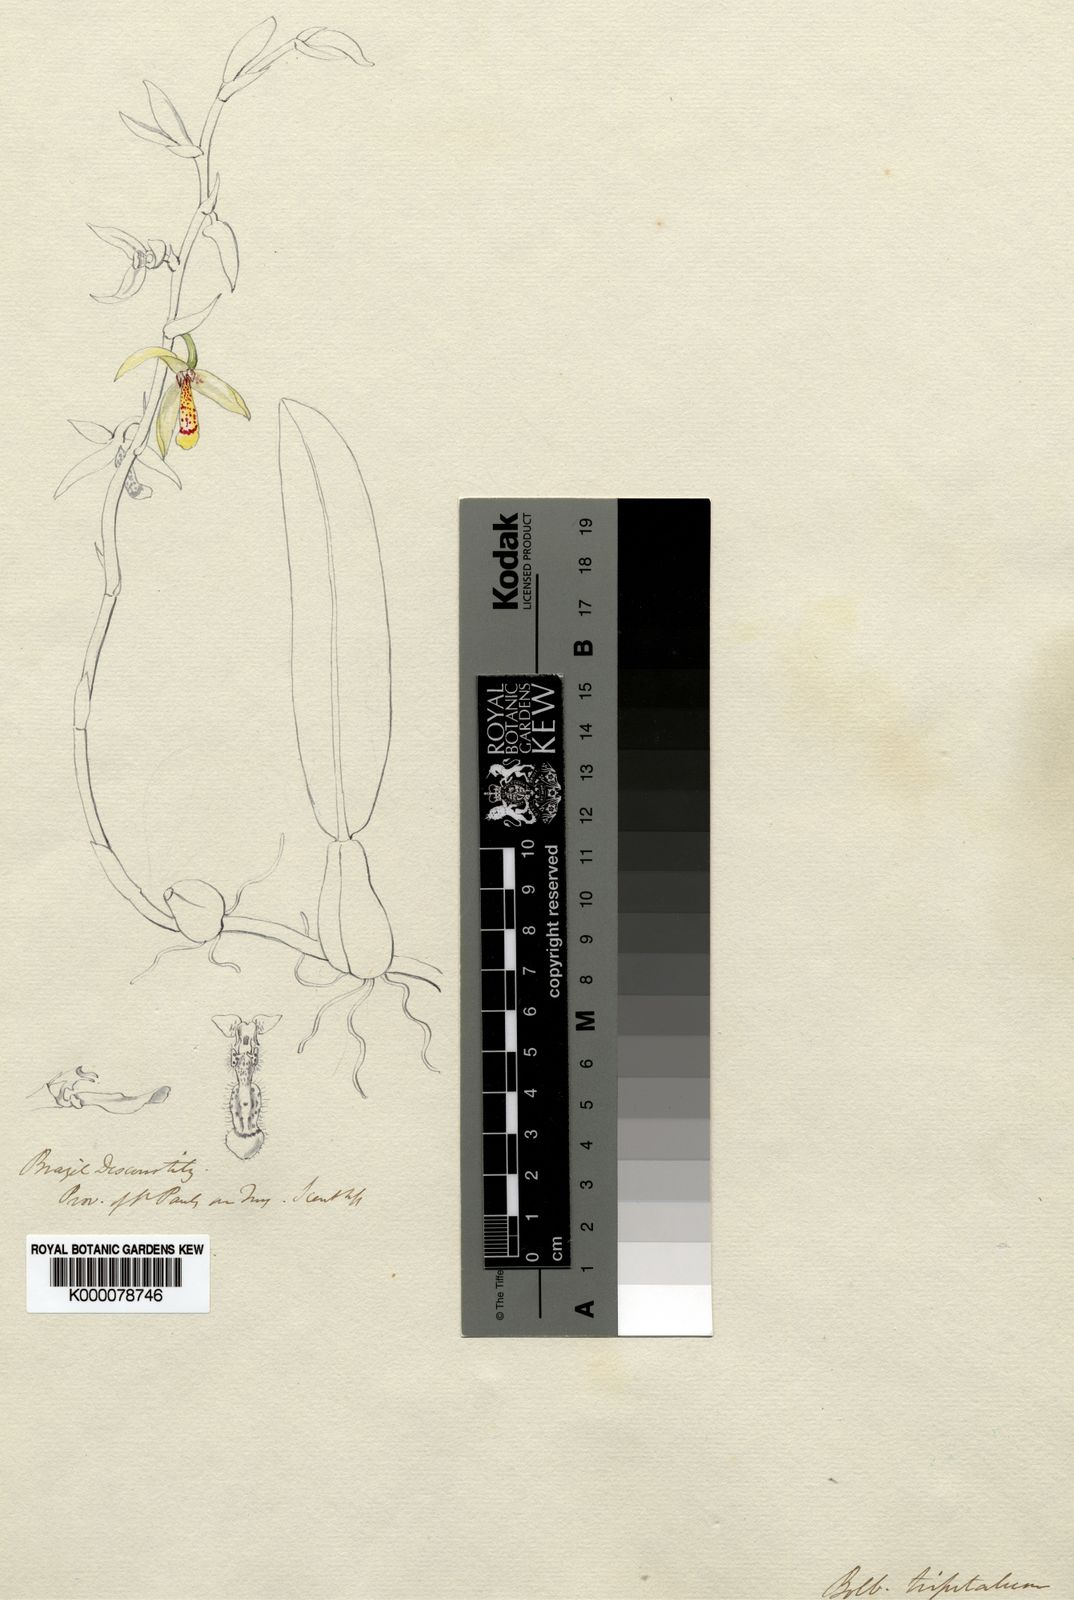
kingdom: Plantae
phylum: Tracheophyta
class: Liliopsida
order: Asparagales
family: Orchidaceae
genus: Bulbophyllum
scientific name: Bulbophyllum tripetalum
